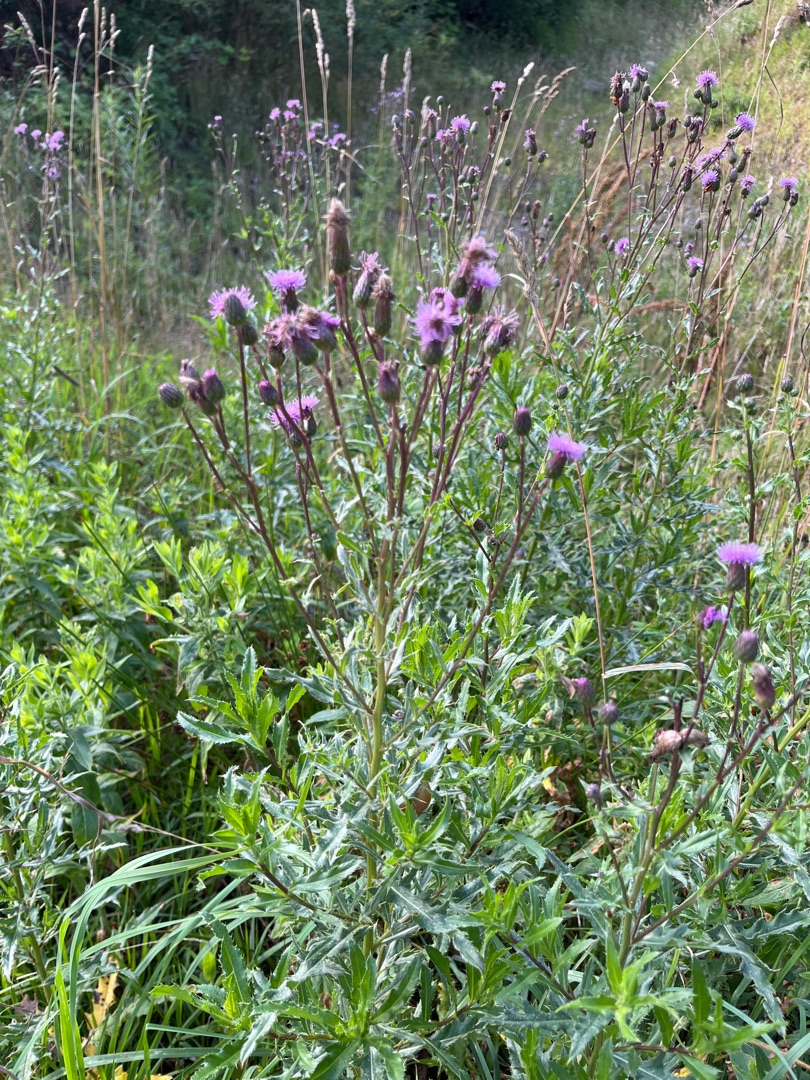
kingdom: Plantae
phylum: Tracheophyta
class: Magnoliopsida
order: Asterales
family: Asteraceae
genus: Cirsium
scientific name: Cirsium arvense
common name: Ager-tidsel
